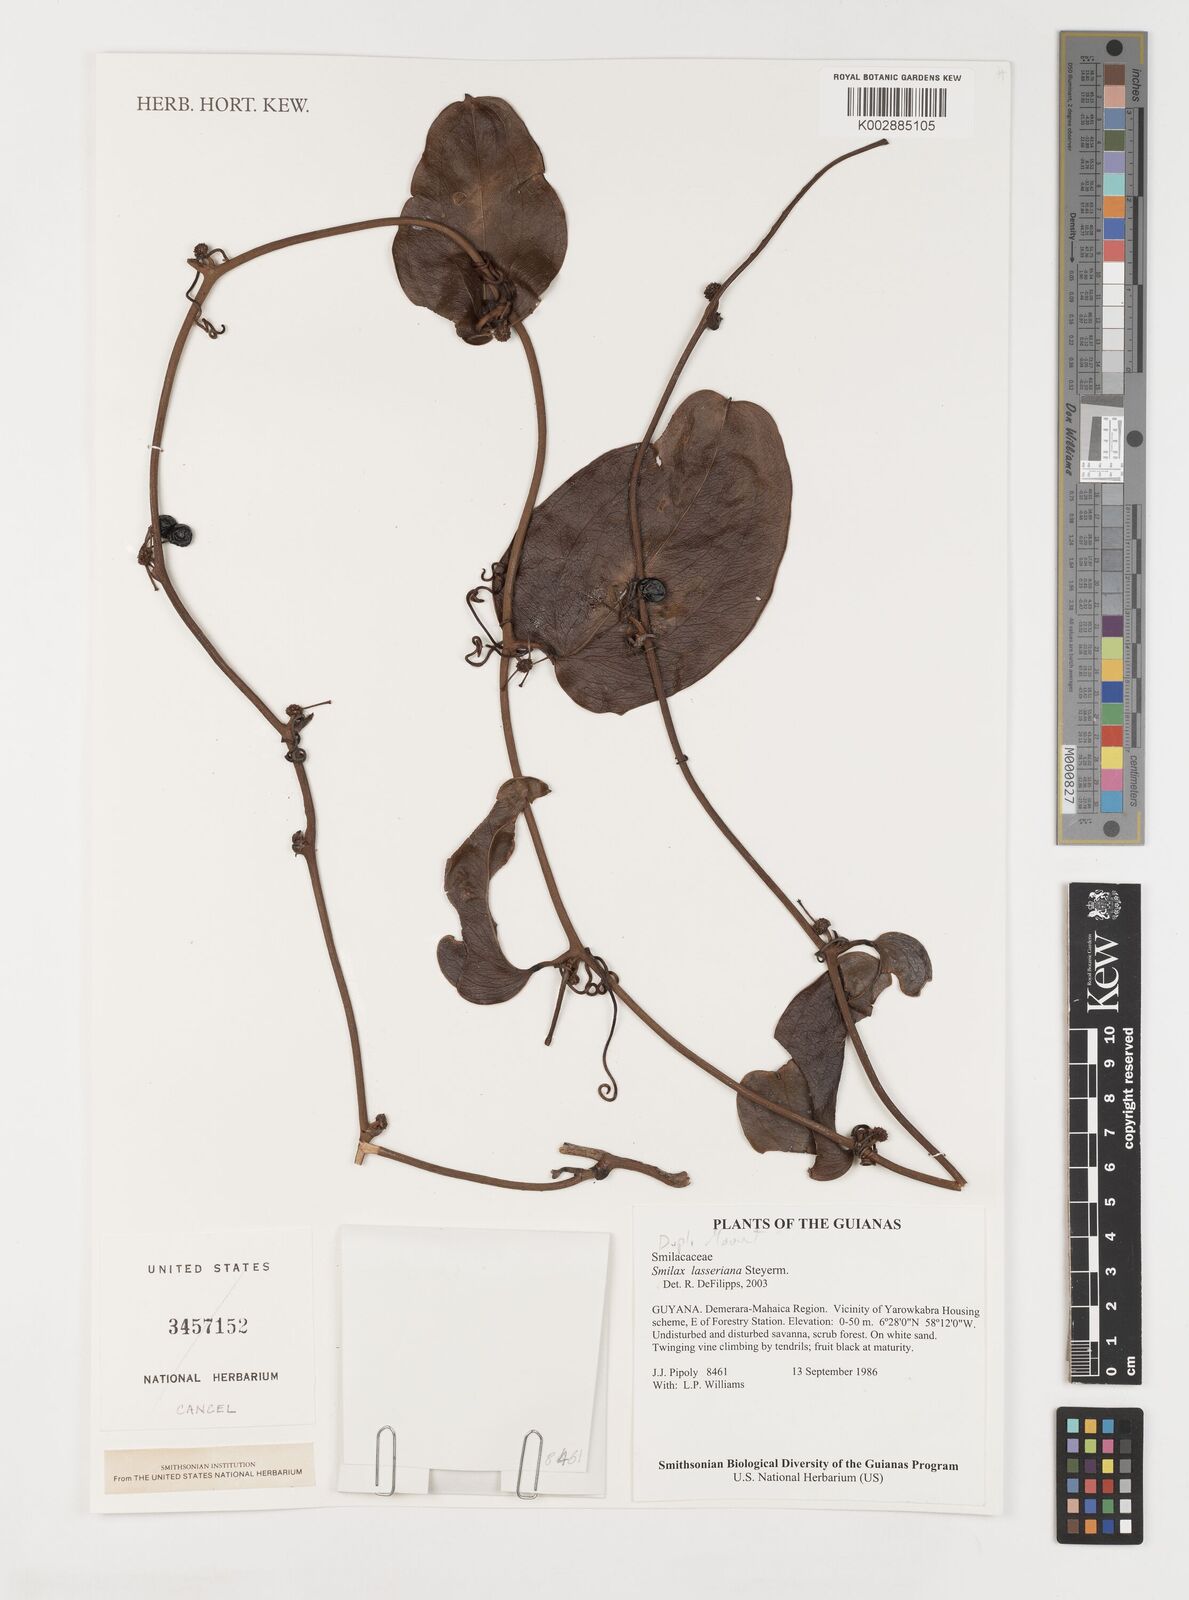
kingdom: Plantae
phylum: Tracheophyta
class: Liliopsida
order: Liliales
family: Smilacaceae
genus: Smilax
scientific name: Smilax domingensis
